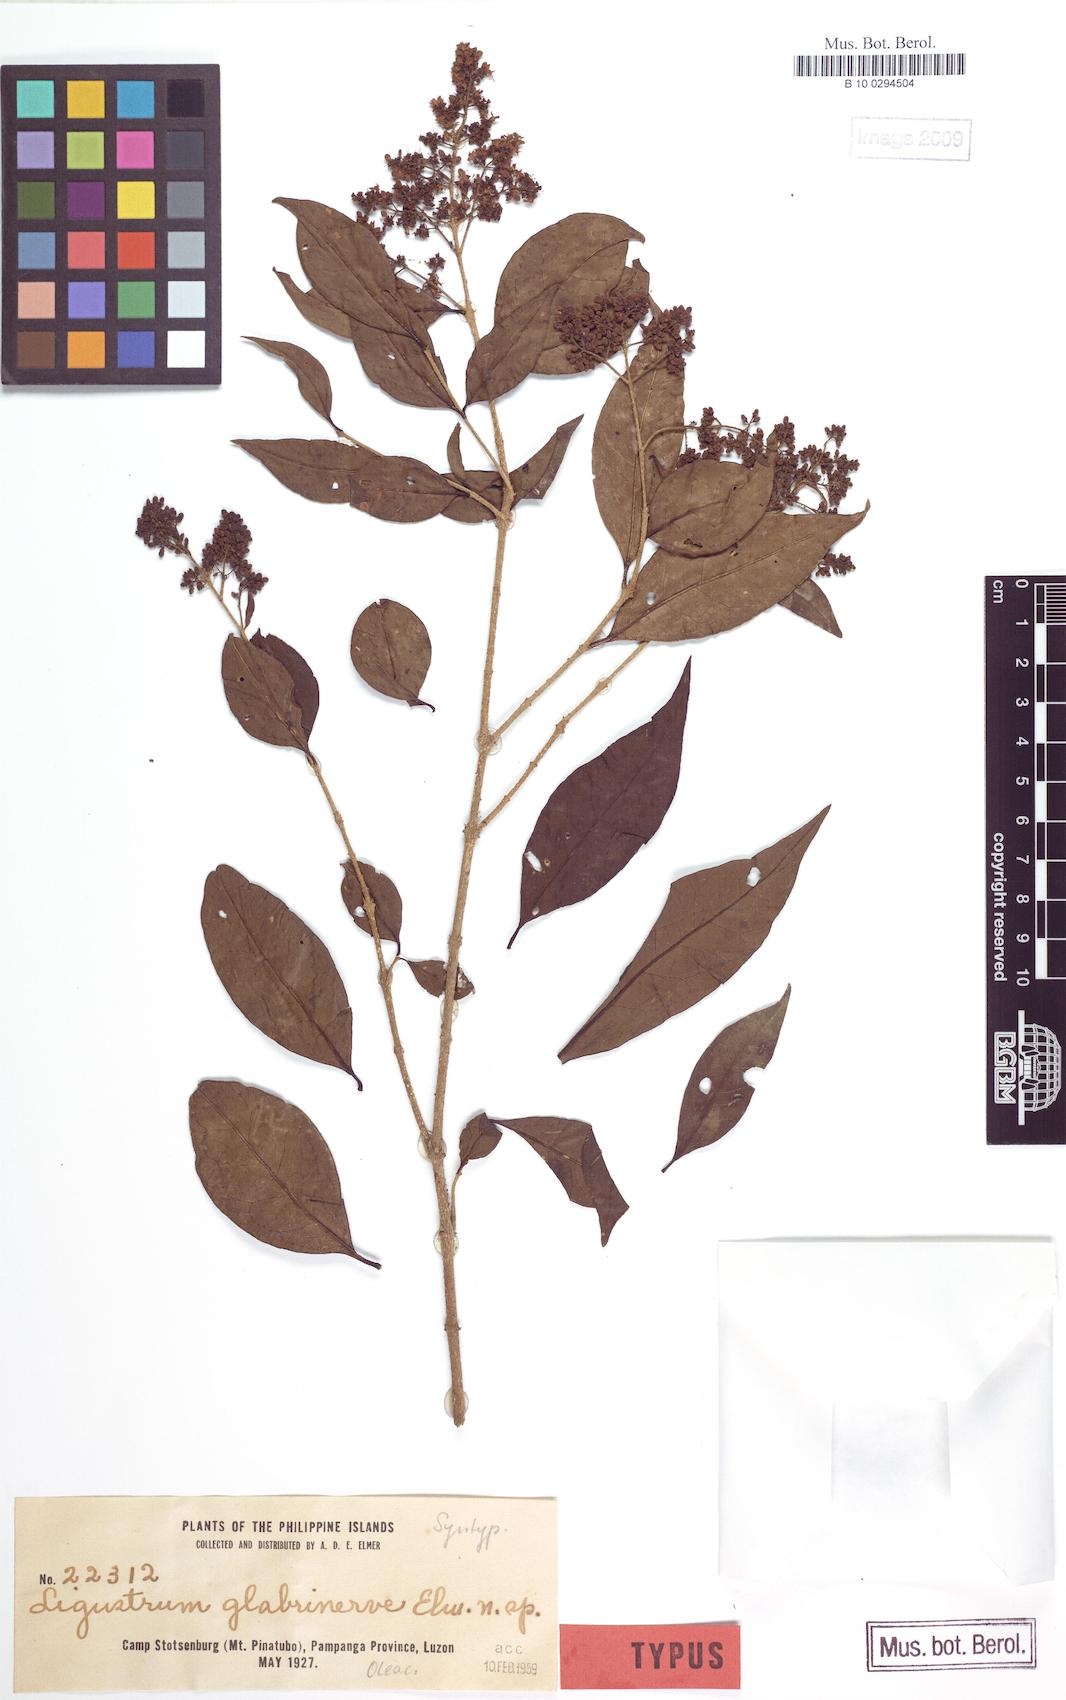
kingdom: Plantae
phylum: Tracheophyta
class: Magnoliopsida
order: Lamiales
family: Oleaceae
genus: Ligustrum
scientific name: Ligustrum cumingianum
